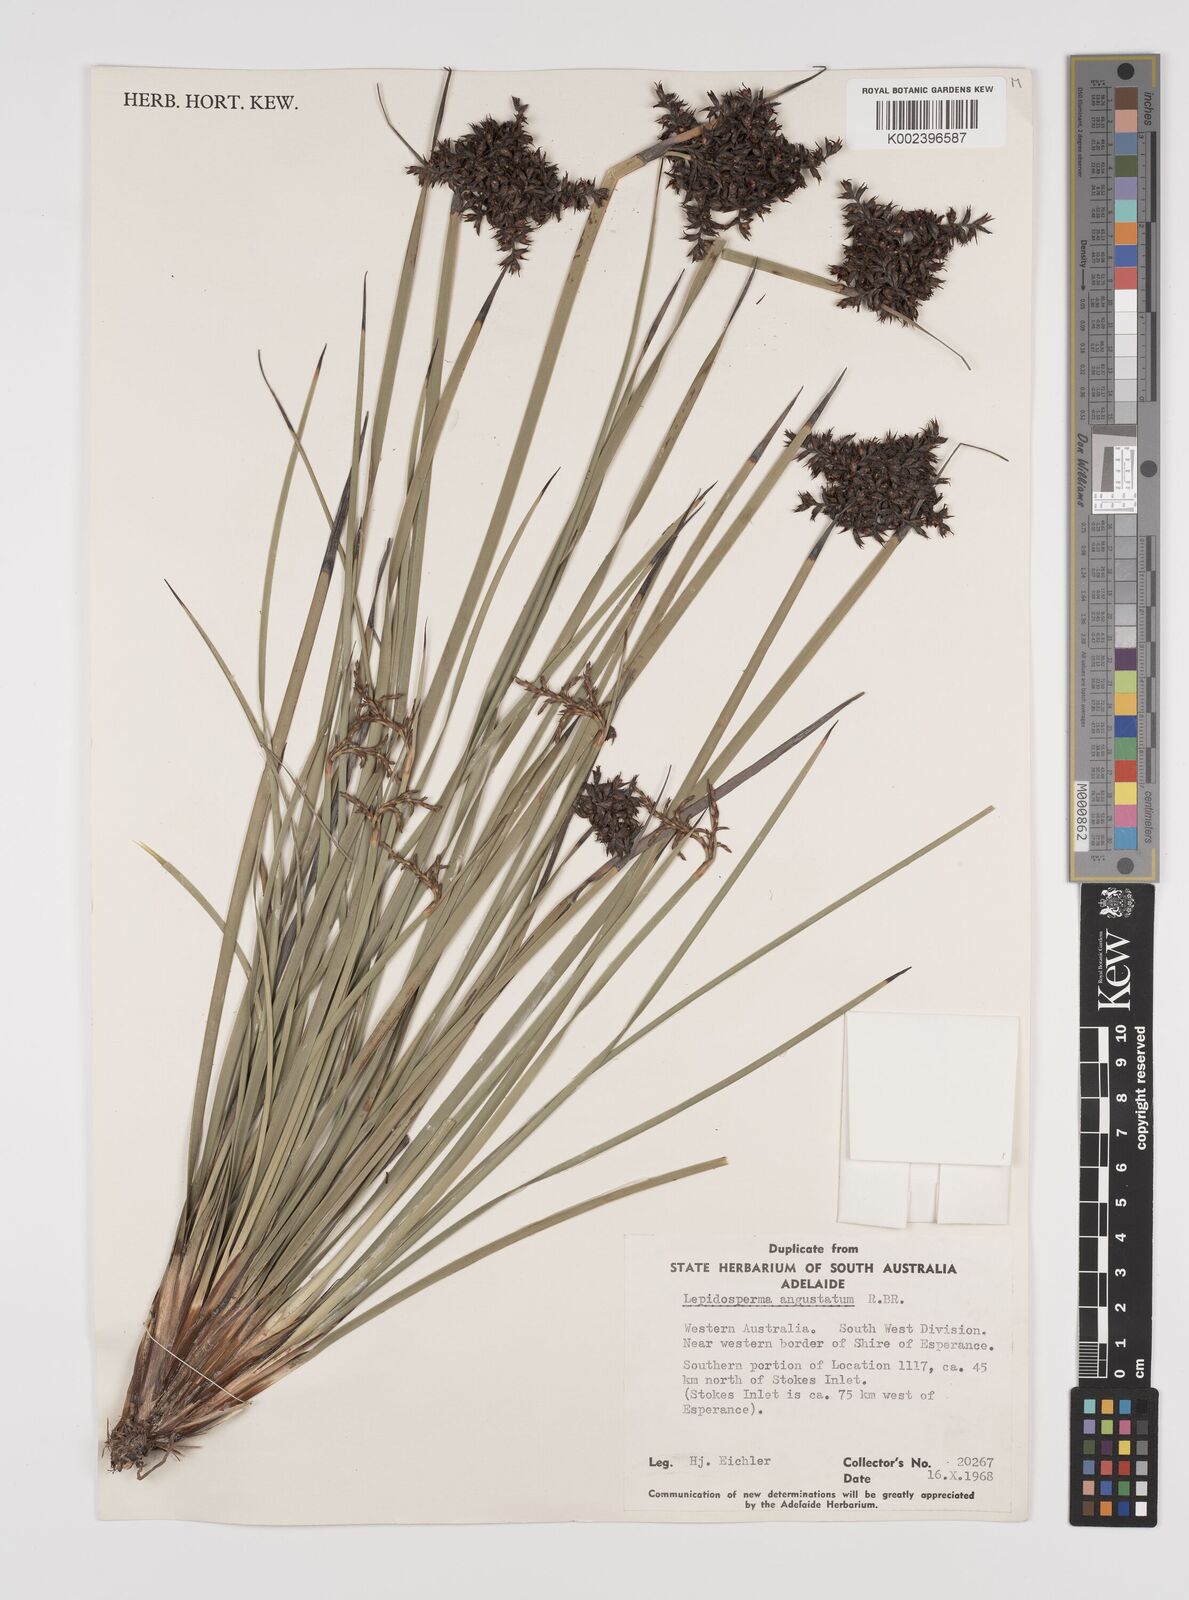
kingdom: Plantae
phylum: Tracheophyta
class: Liliopsida
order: Poales
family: Cyperaceae
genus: Lepidosperma
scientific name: Lepidosperma angustatum
